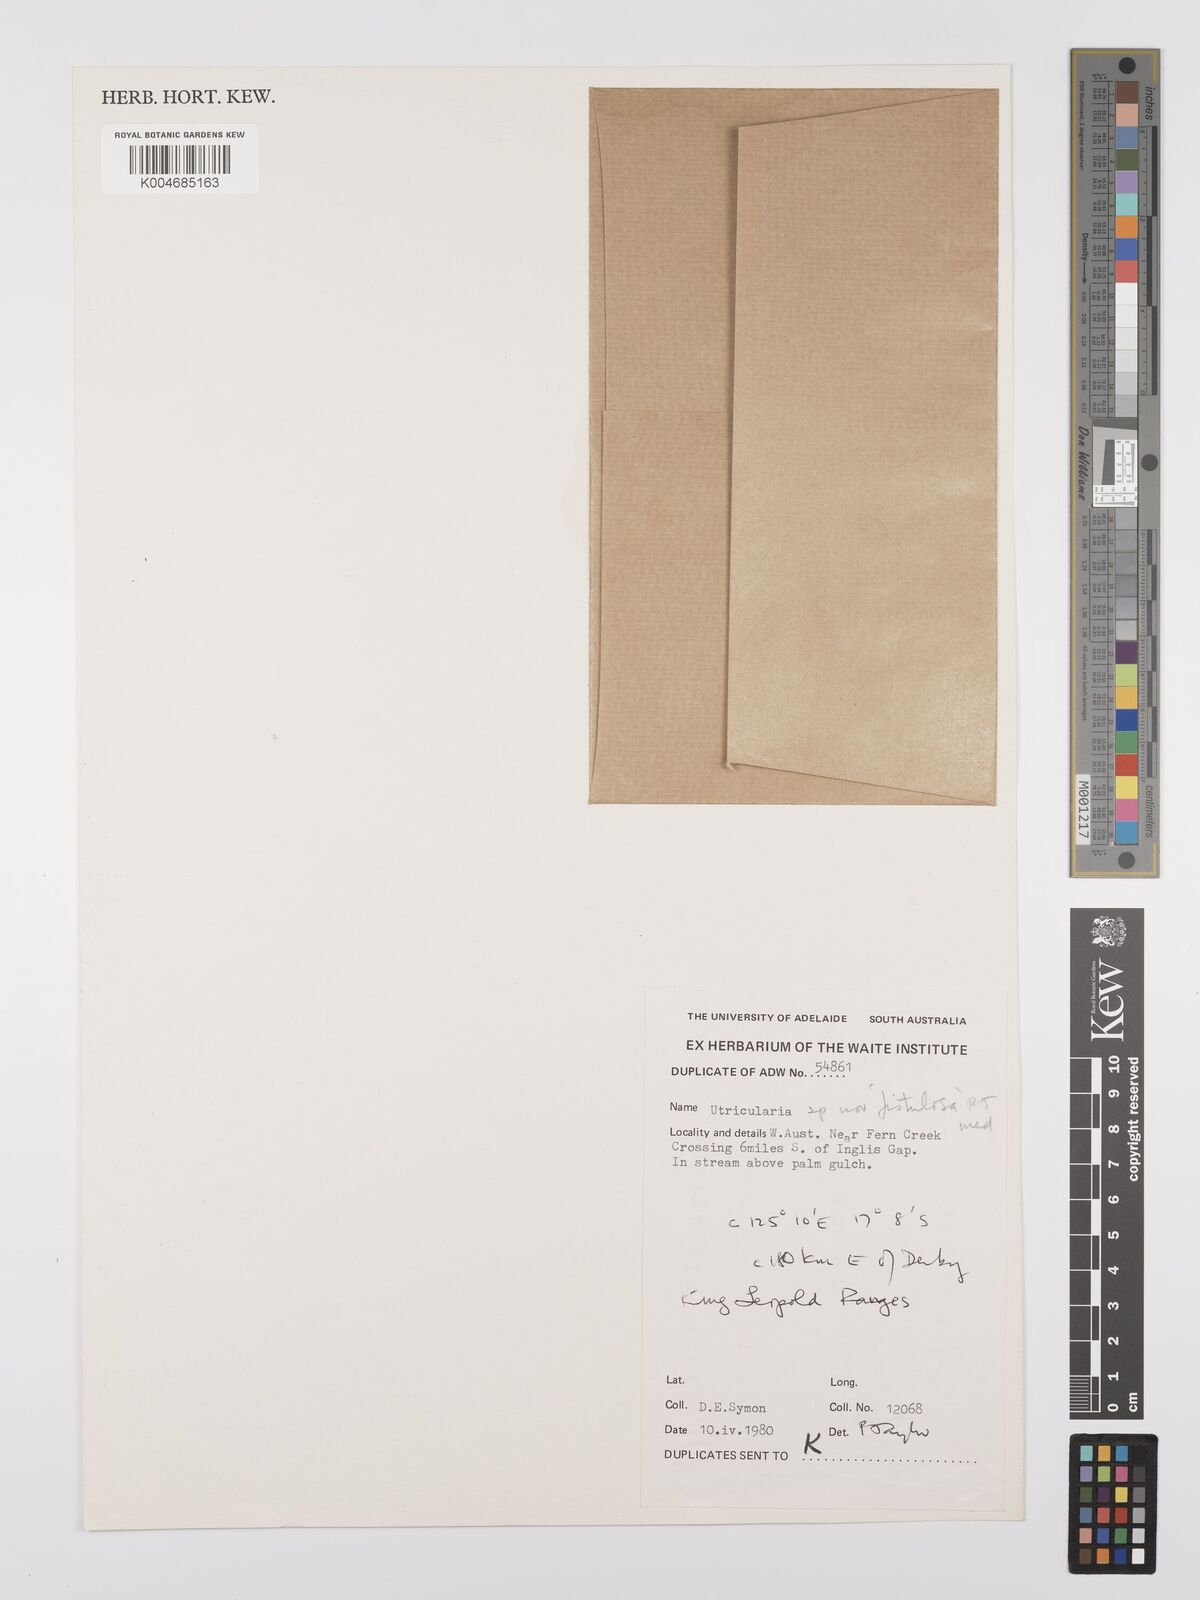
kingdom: Plantae
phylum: Tracheophyta
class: Magnoliopsida
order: Lamiales
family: Lentibulariaceae
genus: Utricularia
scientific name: Utricularia fistulosa
